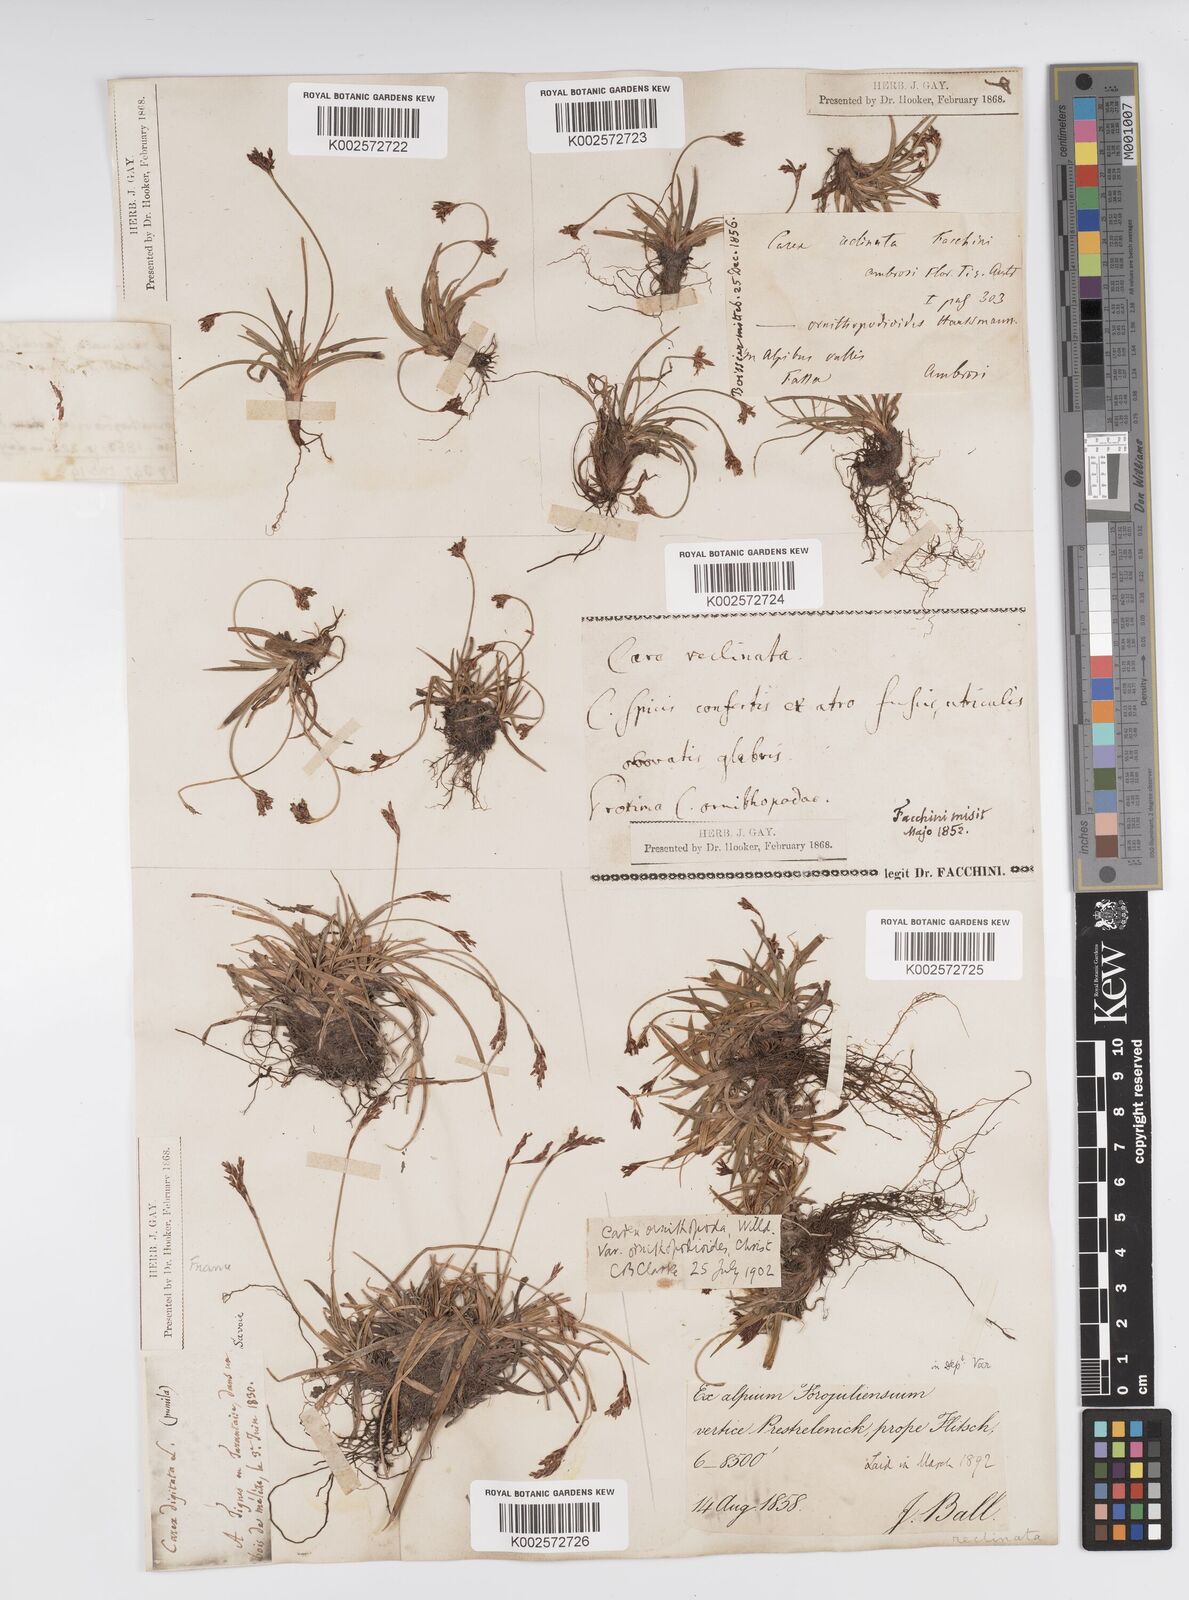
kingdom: Plantae
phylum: Tracheophyta
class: Liliopsida
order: Poales
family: Cyperaceae
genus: Carex
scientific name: Carex ornithopoda
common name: Bird's-foot sedge
